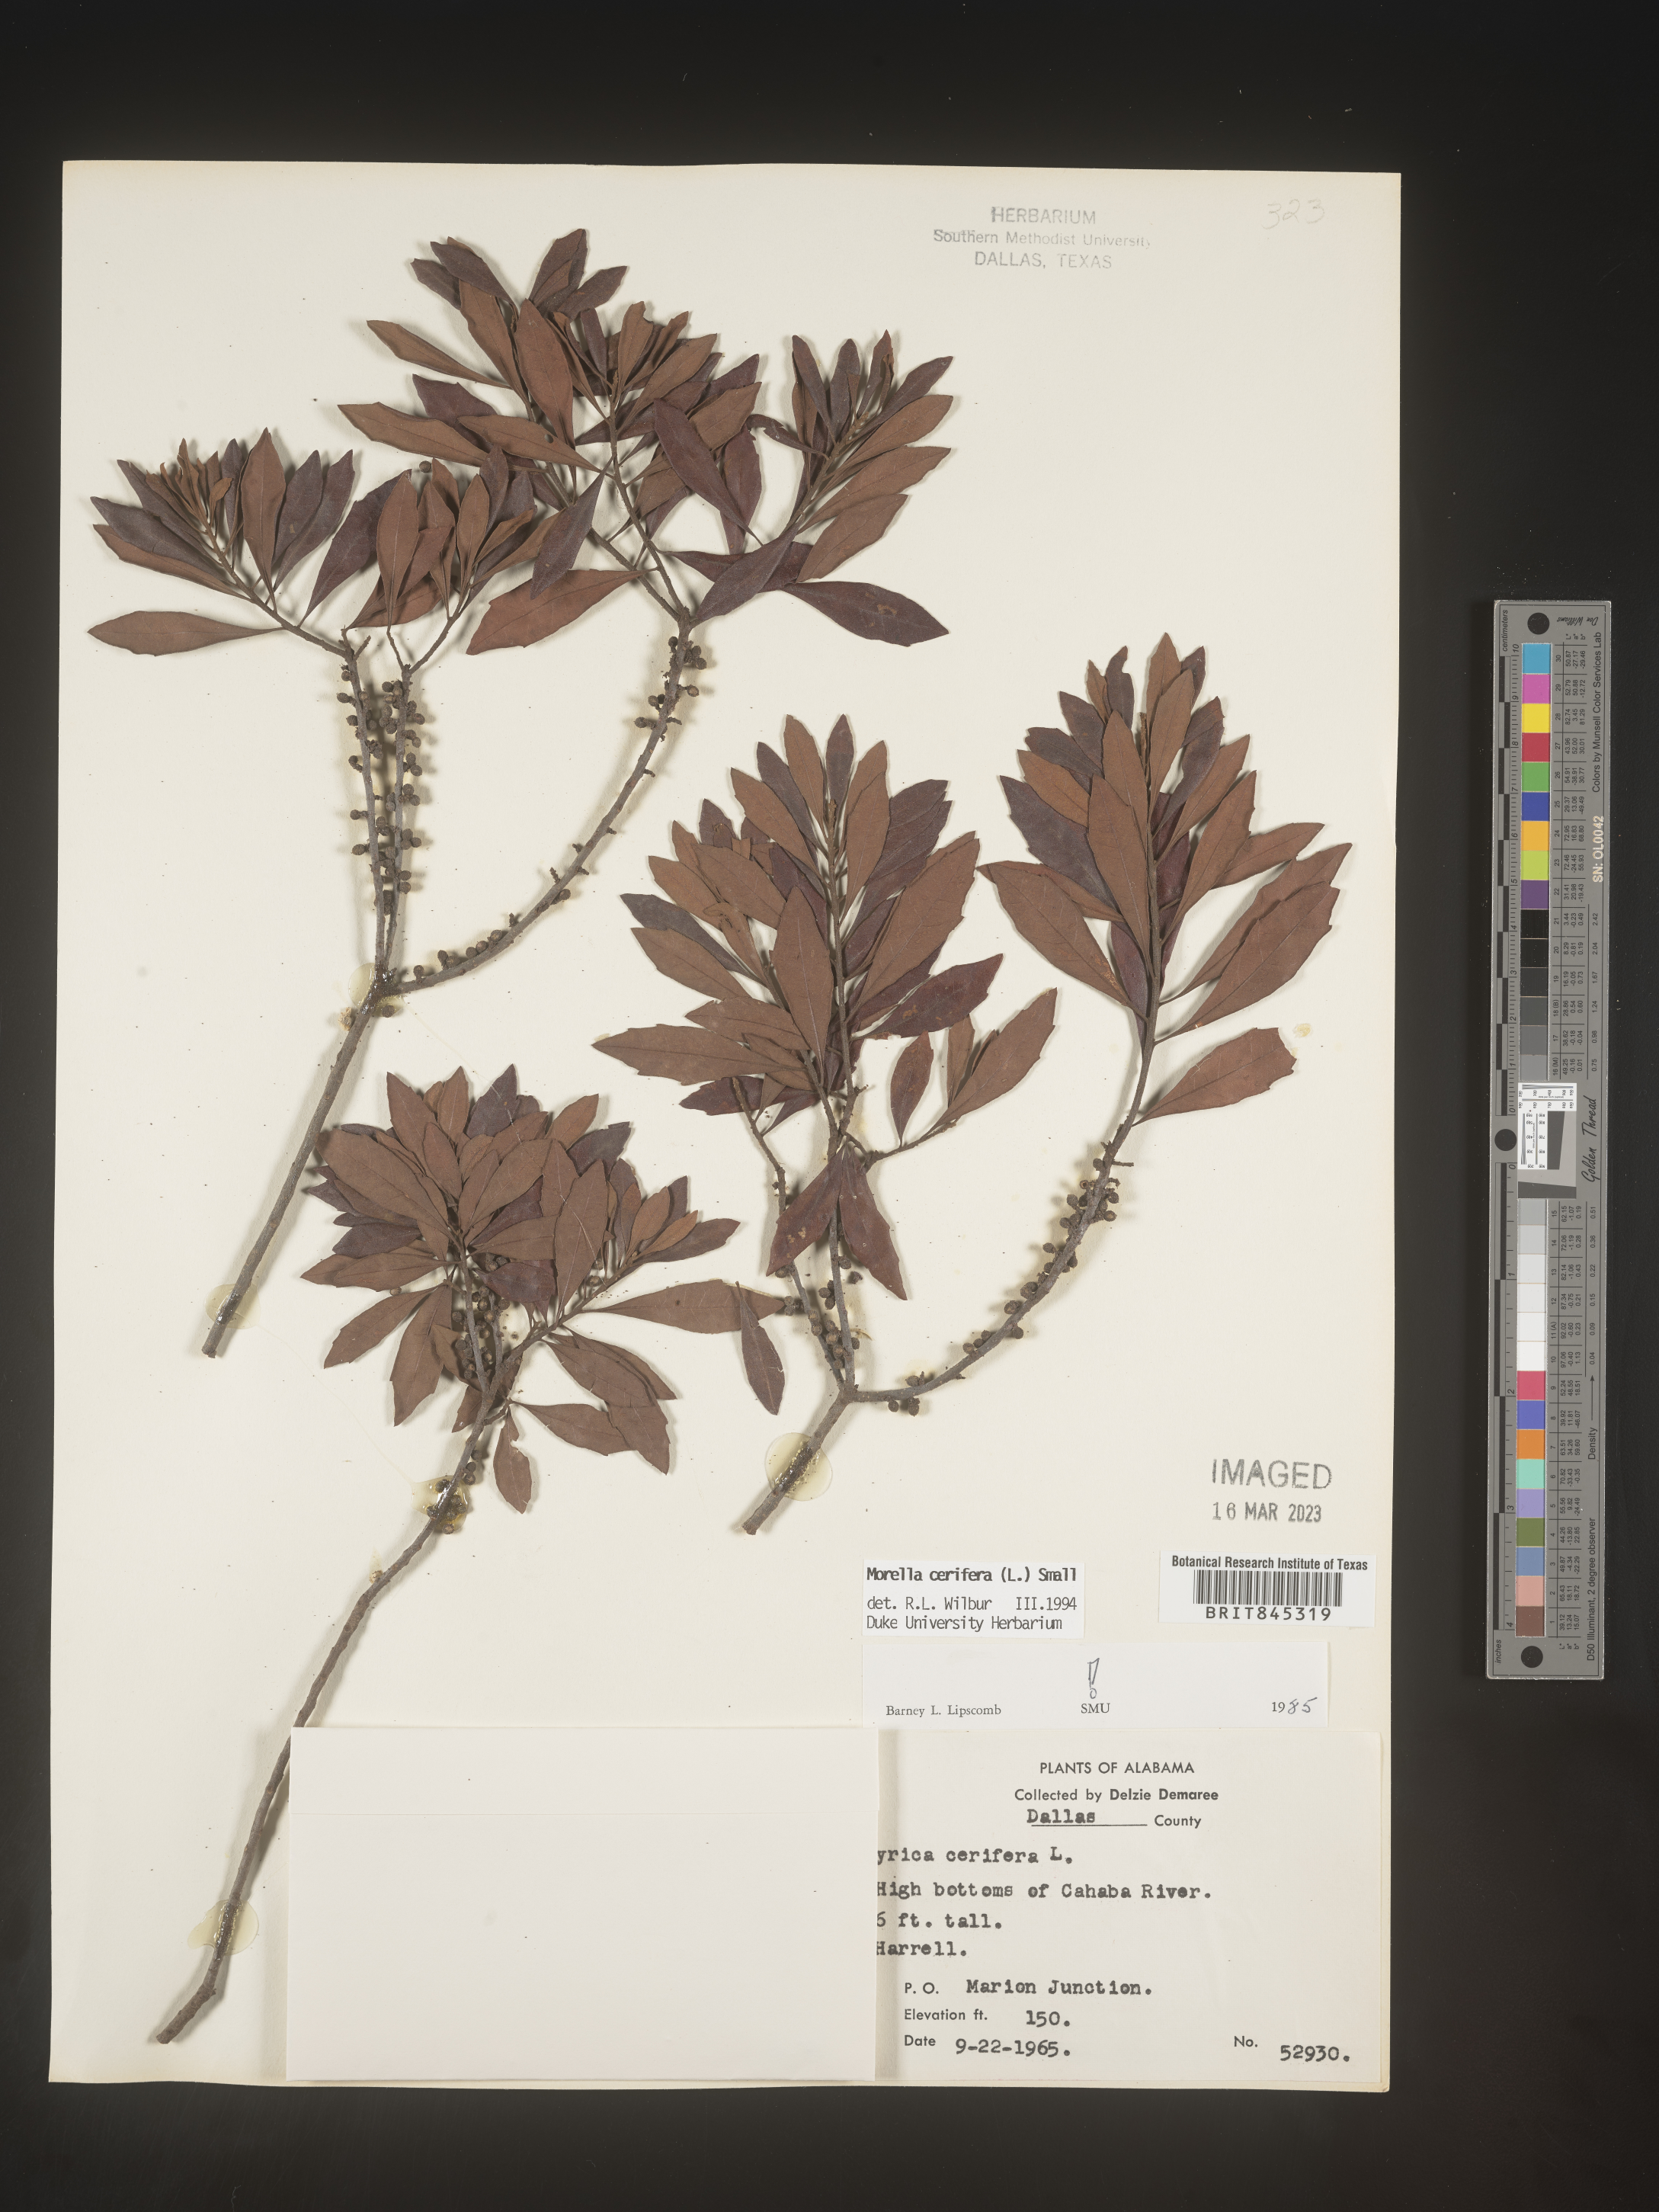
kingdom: Plantae
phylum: Tracheophyta
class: Magnoliopsida
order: Fagales
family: Myricaceae
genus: Morella
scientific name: Morella cerifera
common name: Wax myrtle
